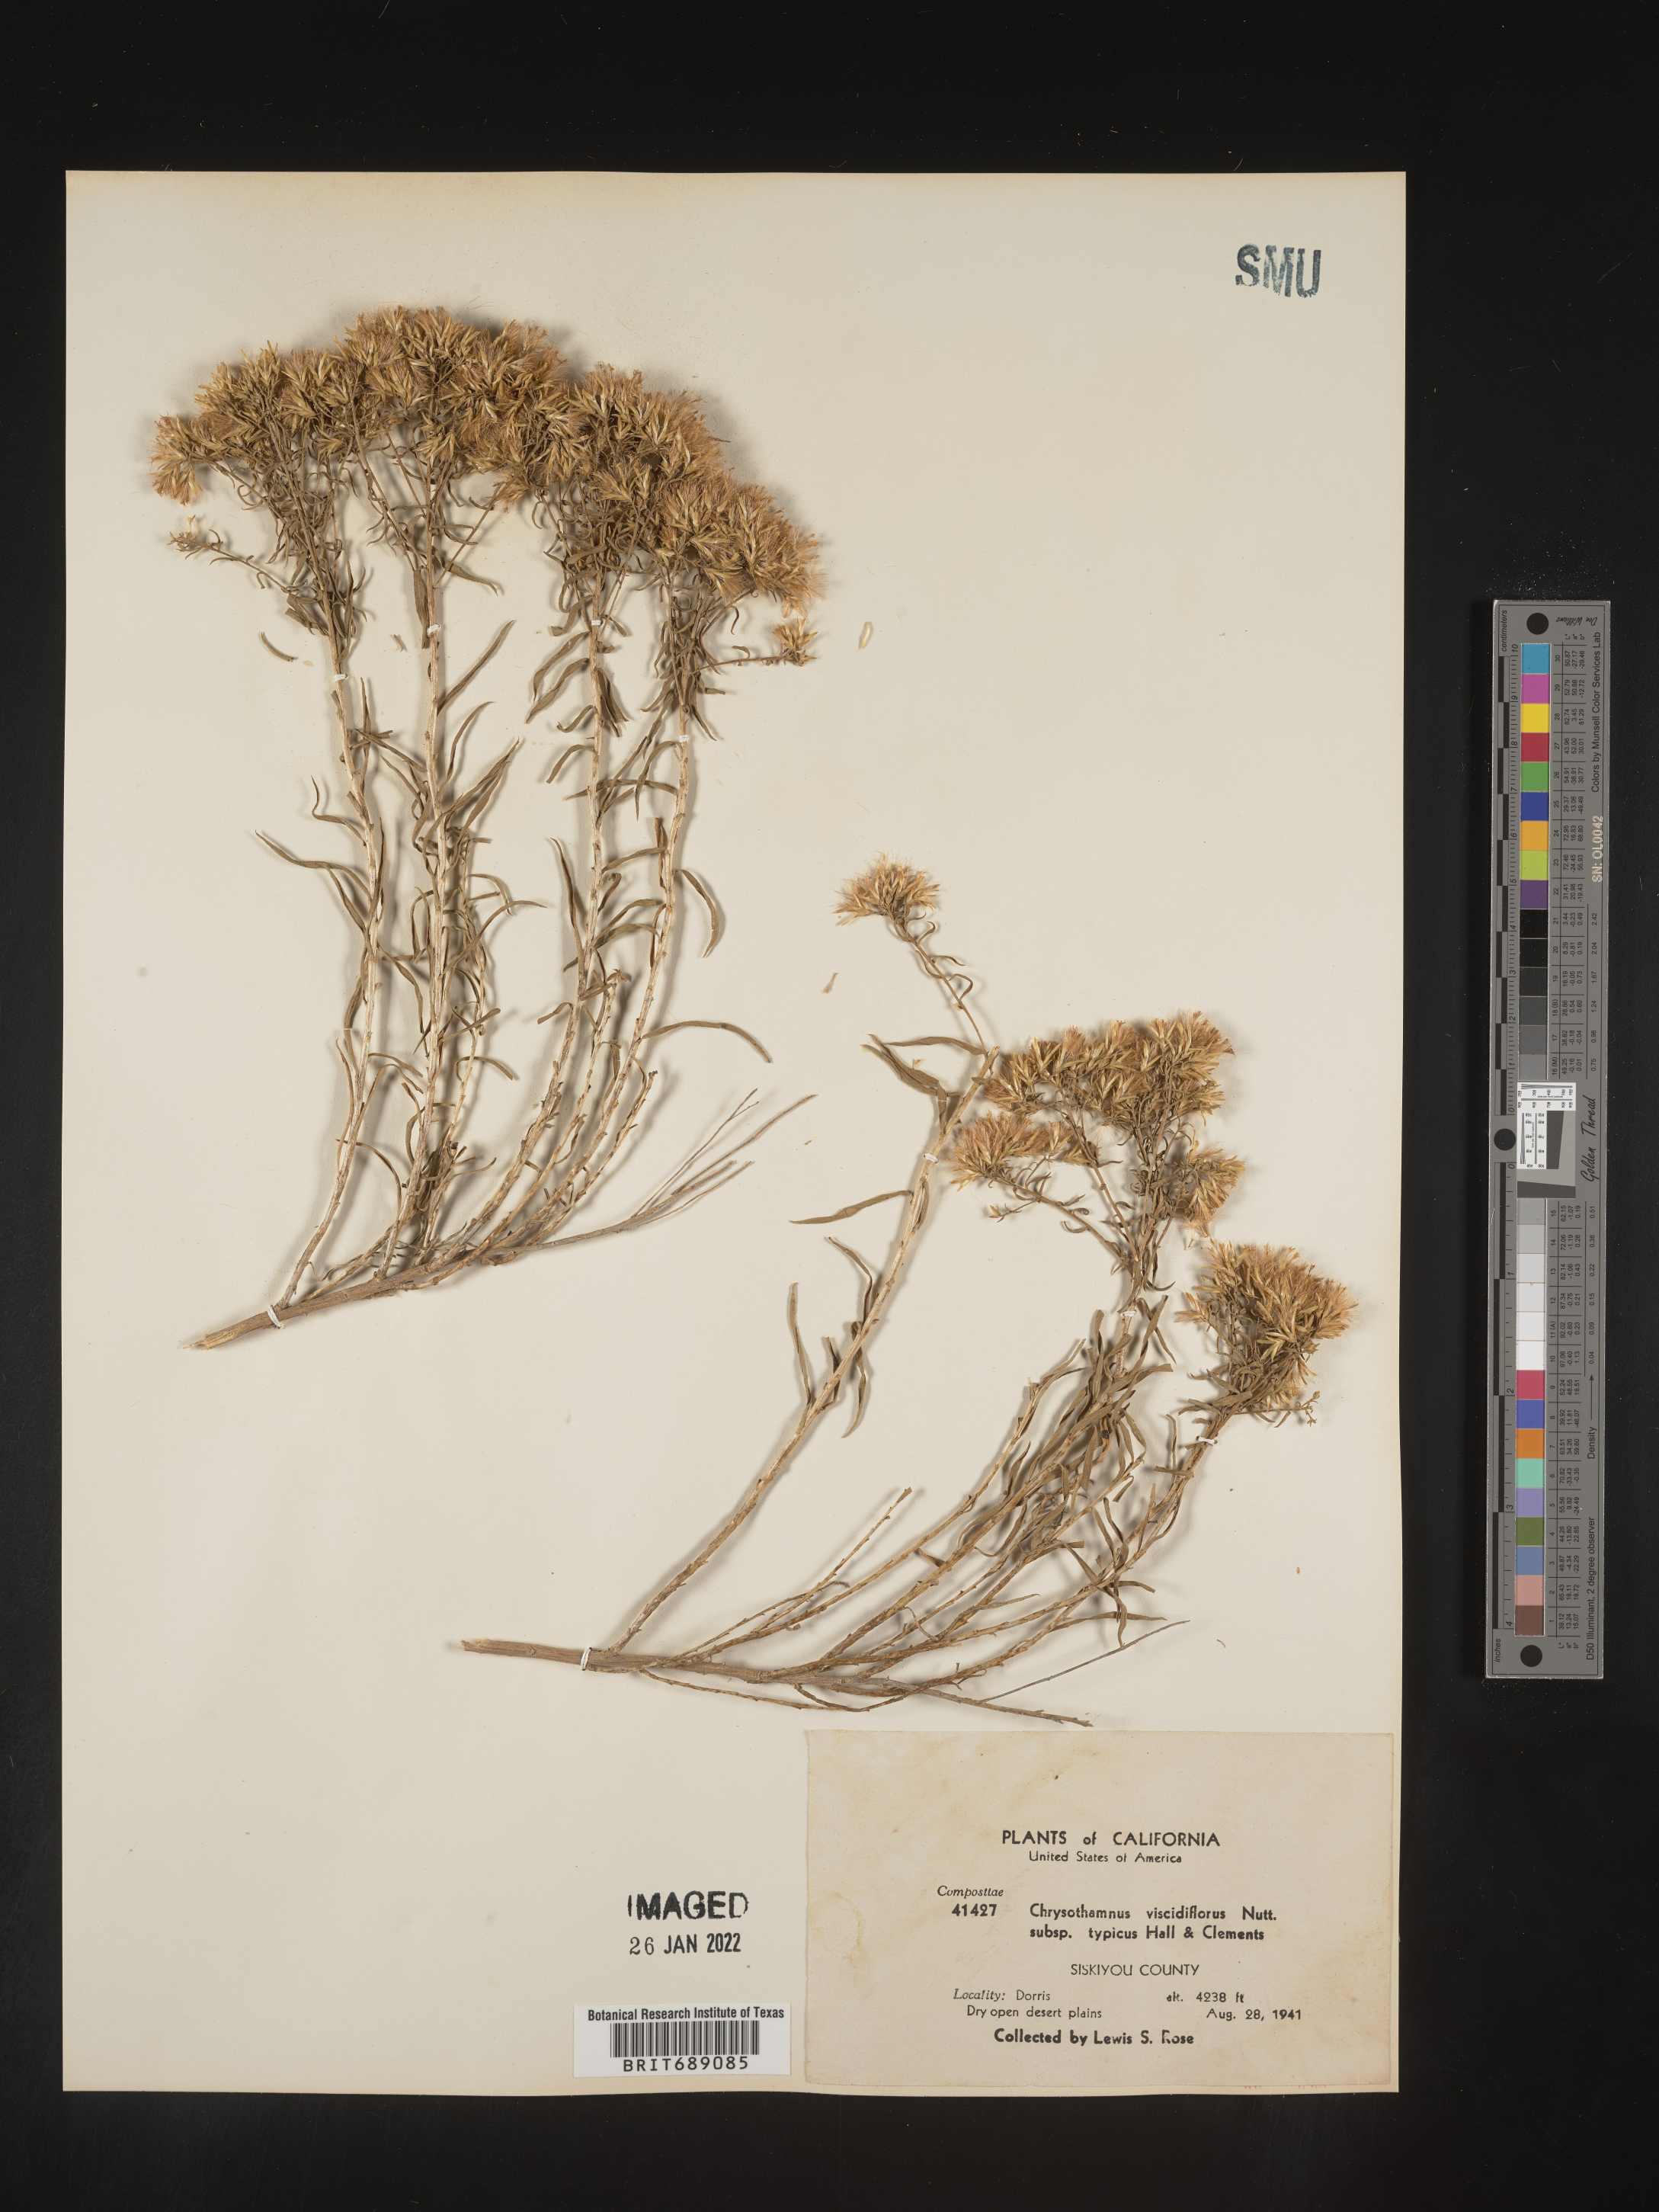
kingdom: Plantae
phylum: Tracheophyta
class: Magnoliopsida
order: Asterales
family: Asteraceae
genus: Chrysothamnus
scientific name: Chrysothamnus viscidiflorus
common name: Yellow rabbitbrush
